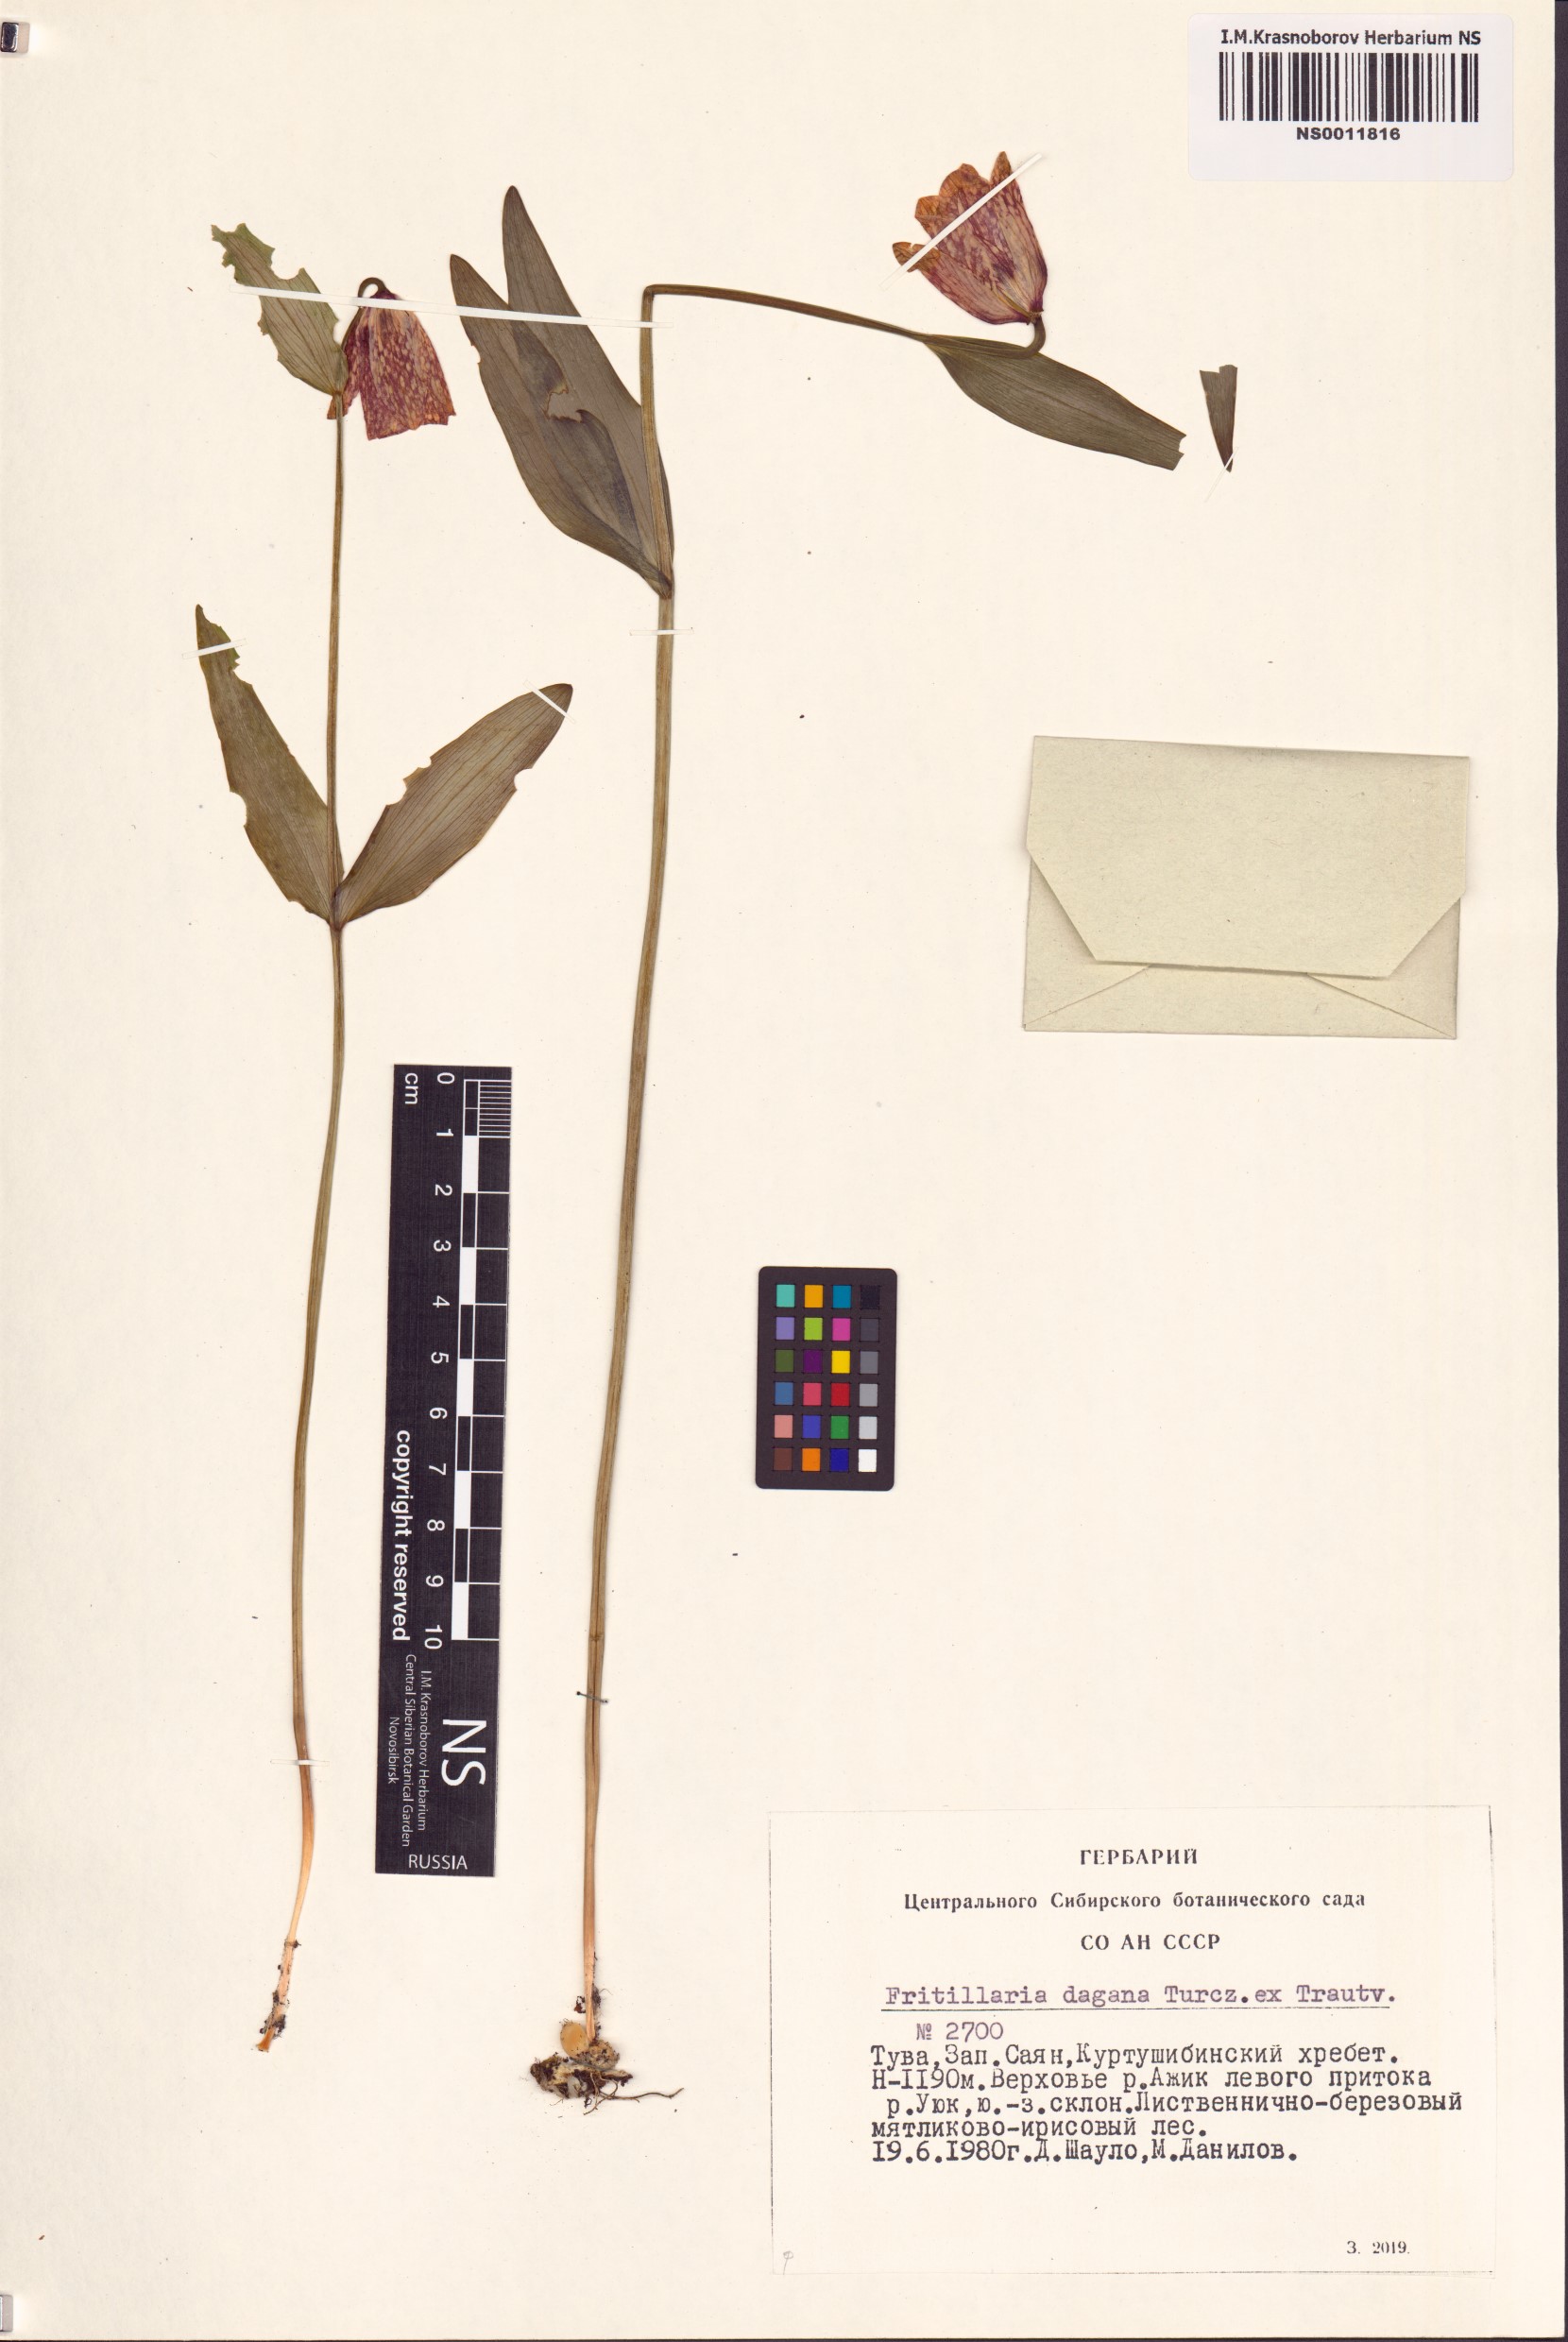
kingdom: Plantae
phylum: Tracheophyta
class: Liliopsida
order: Liliales
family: Liliaceae
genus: Fritillaria
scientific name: Fritillaria dagana
